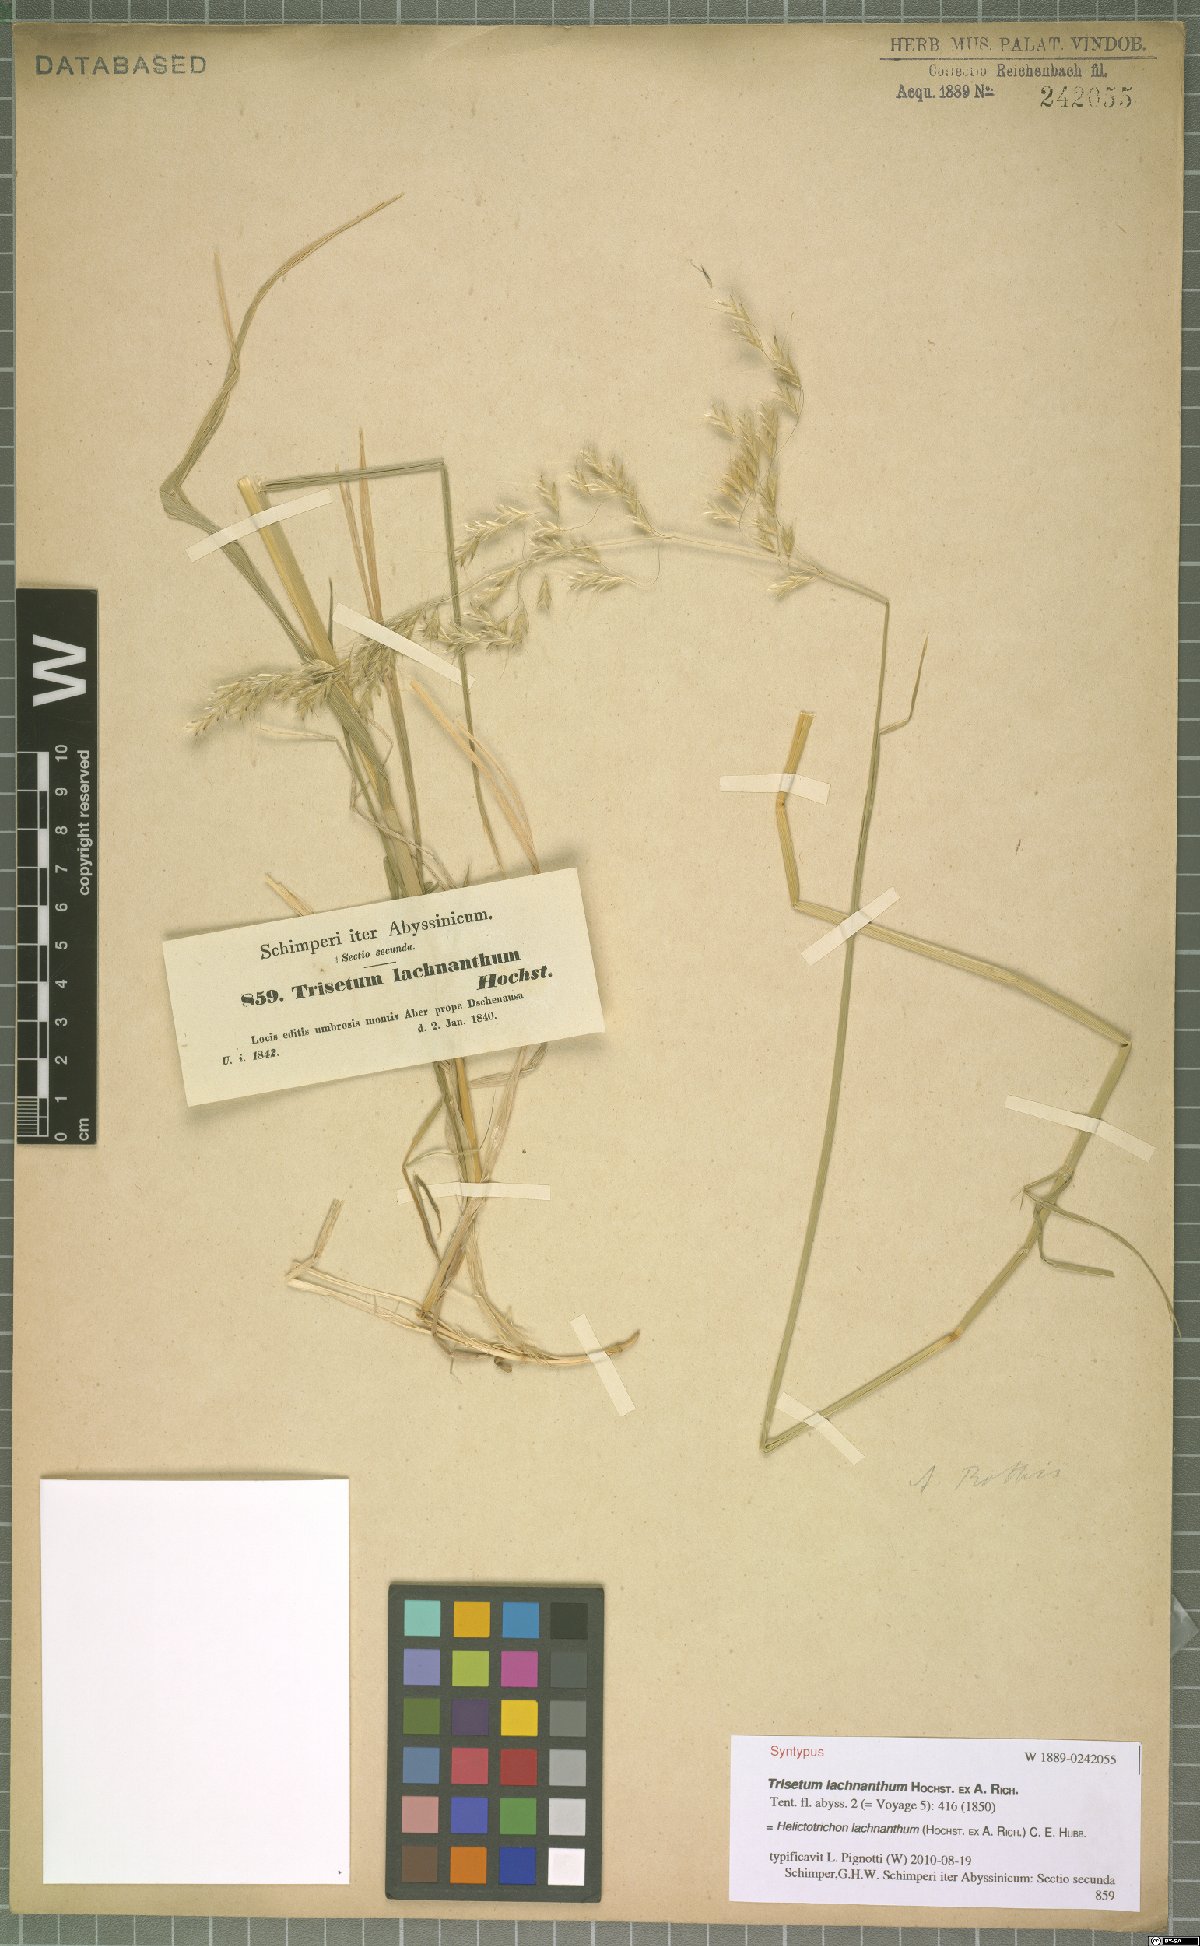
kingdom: Plantae
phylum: Tracheophyta
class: Liliopsida
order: Poales
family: Poaceae
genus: Trisetopsis
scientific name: Trisetopsis lachnantha
